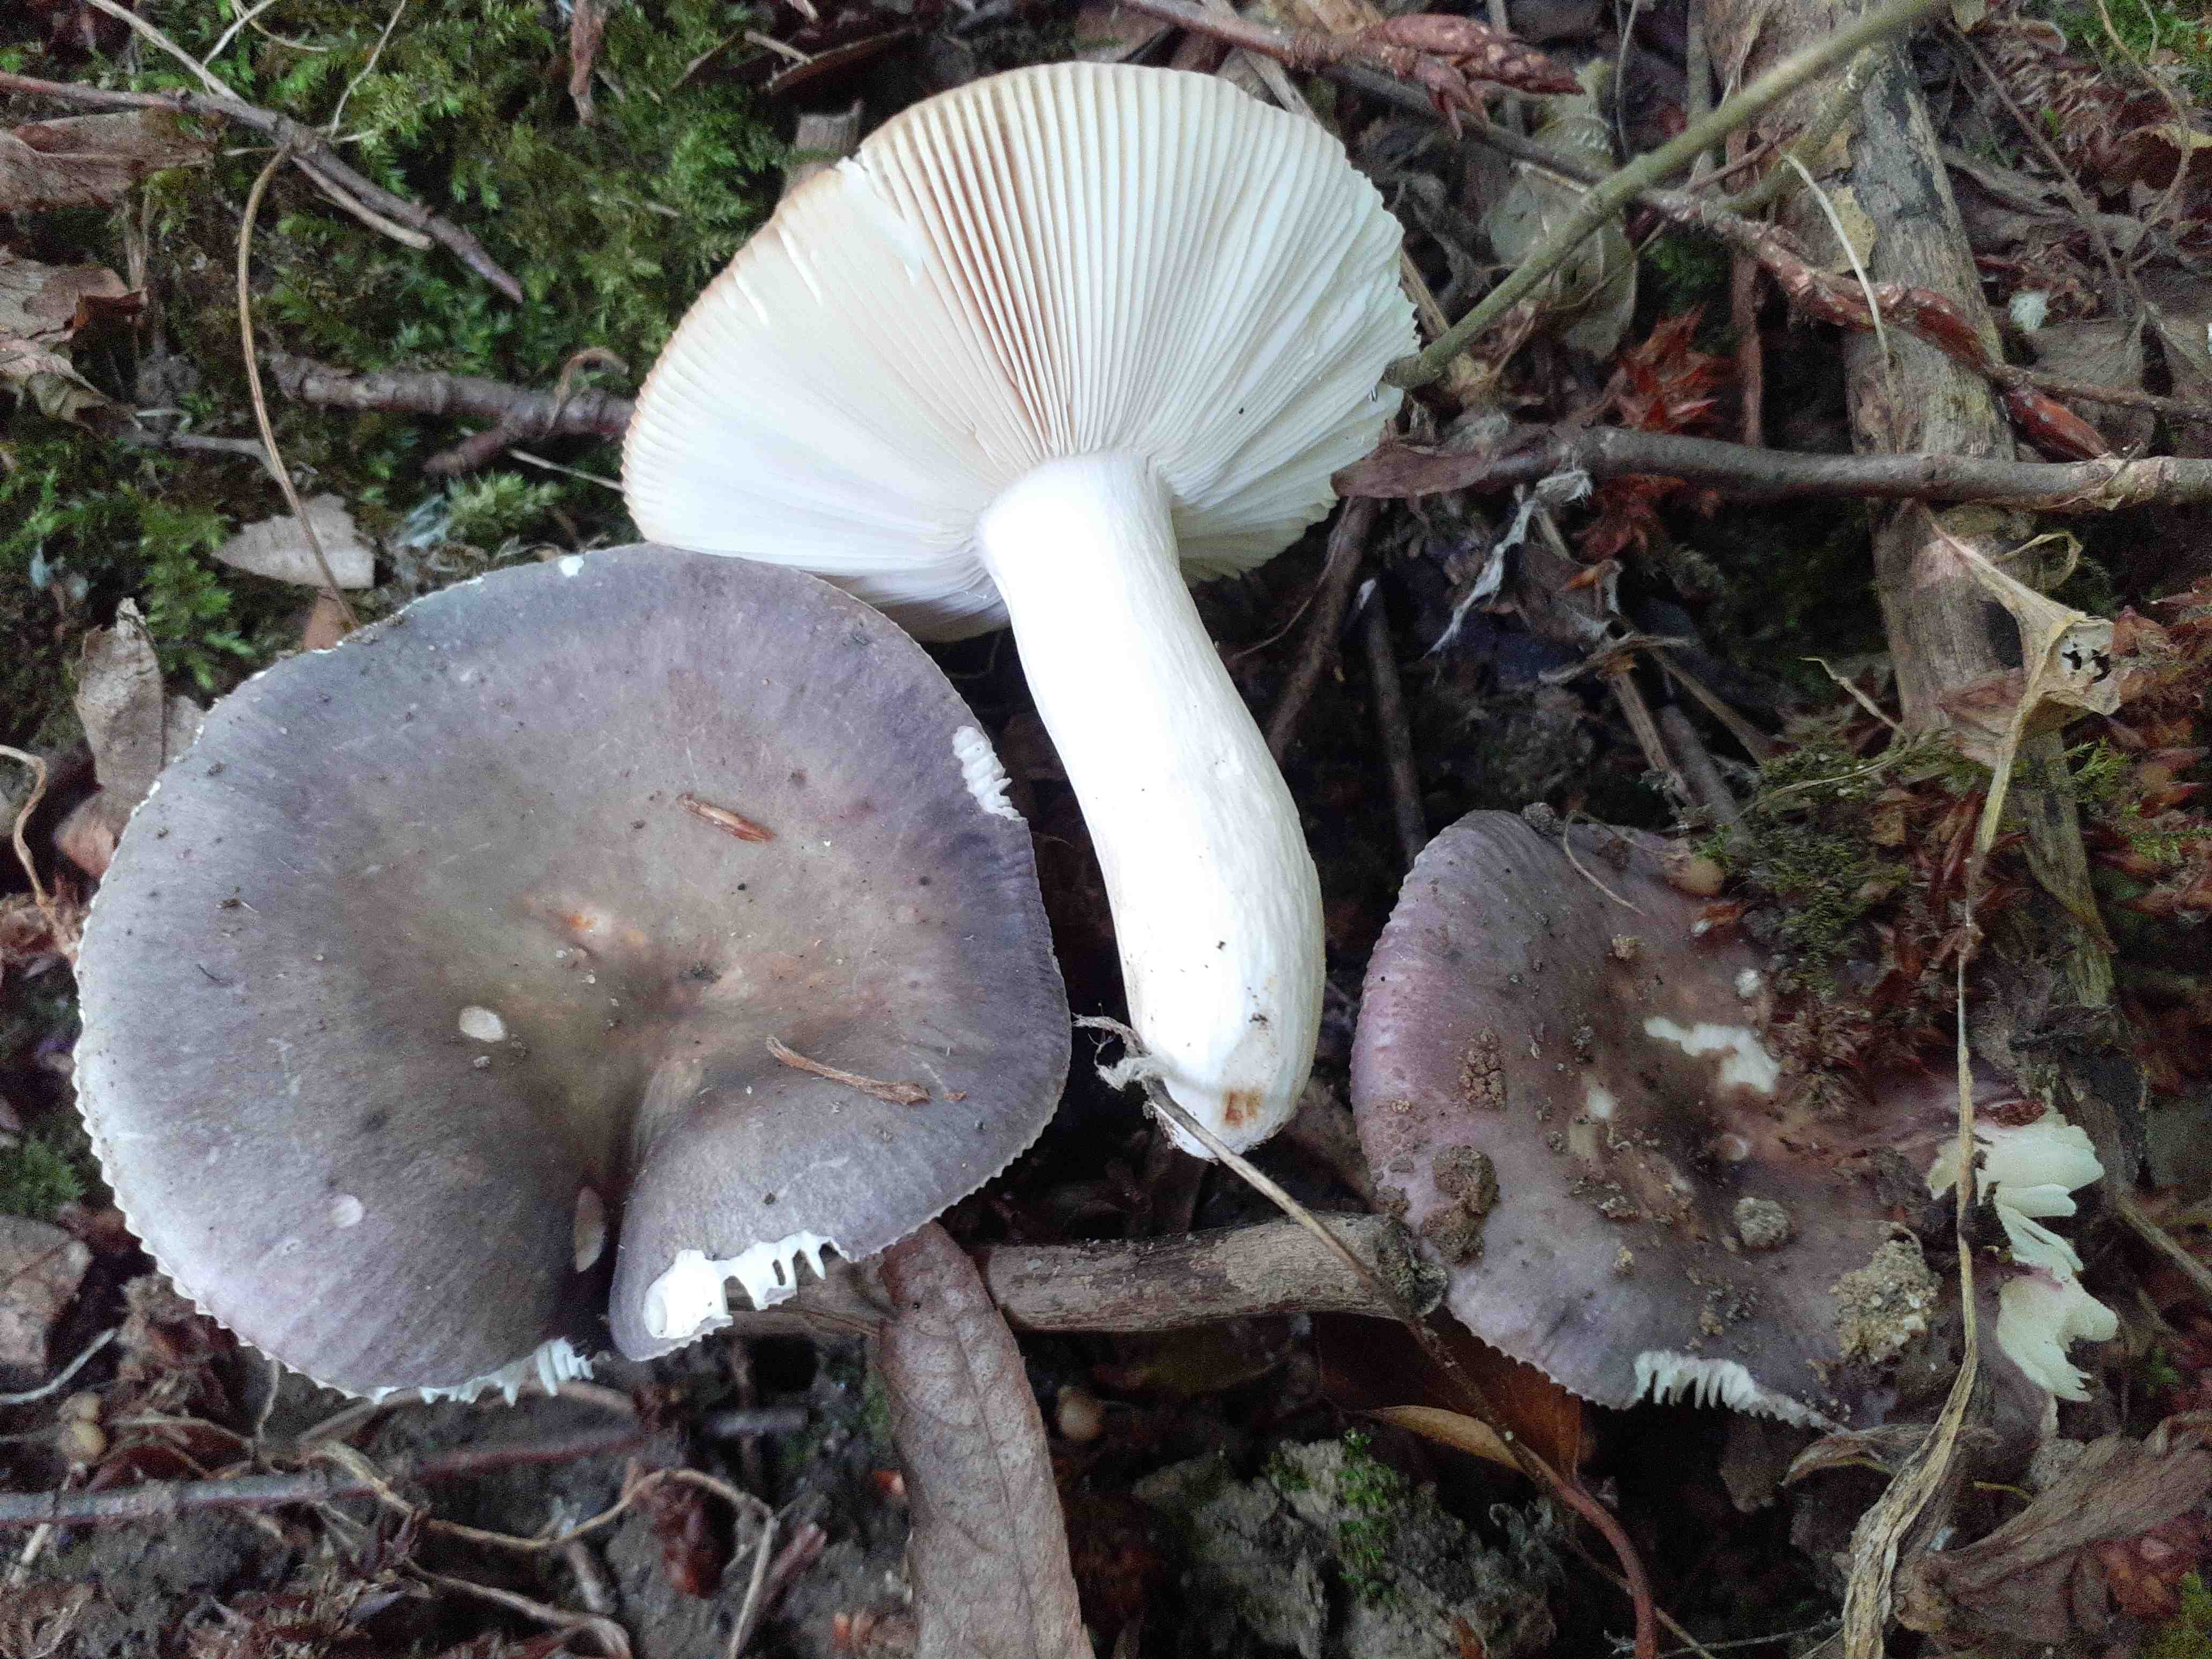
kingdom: Fungi
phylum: Basidiomycota
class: Agaricomycetes
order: Russulales
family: Russulaceae
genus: Russula
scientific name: Russula grisea
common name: grålig skørhat
